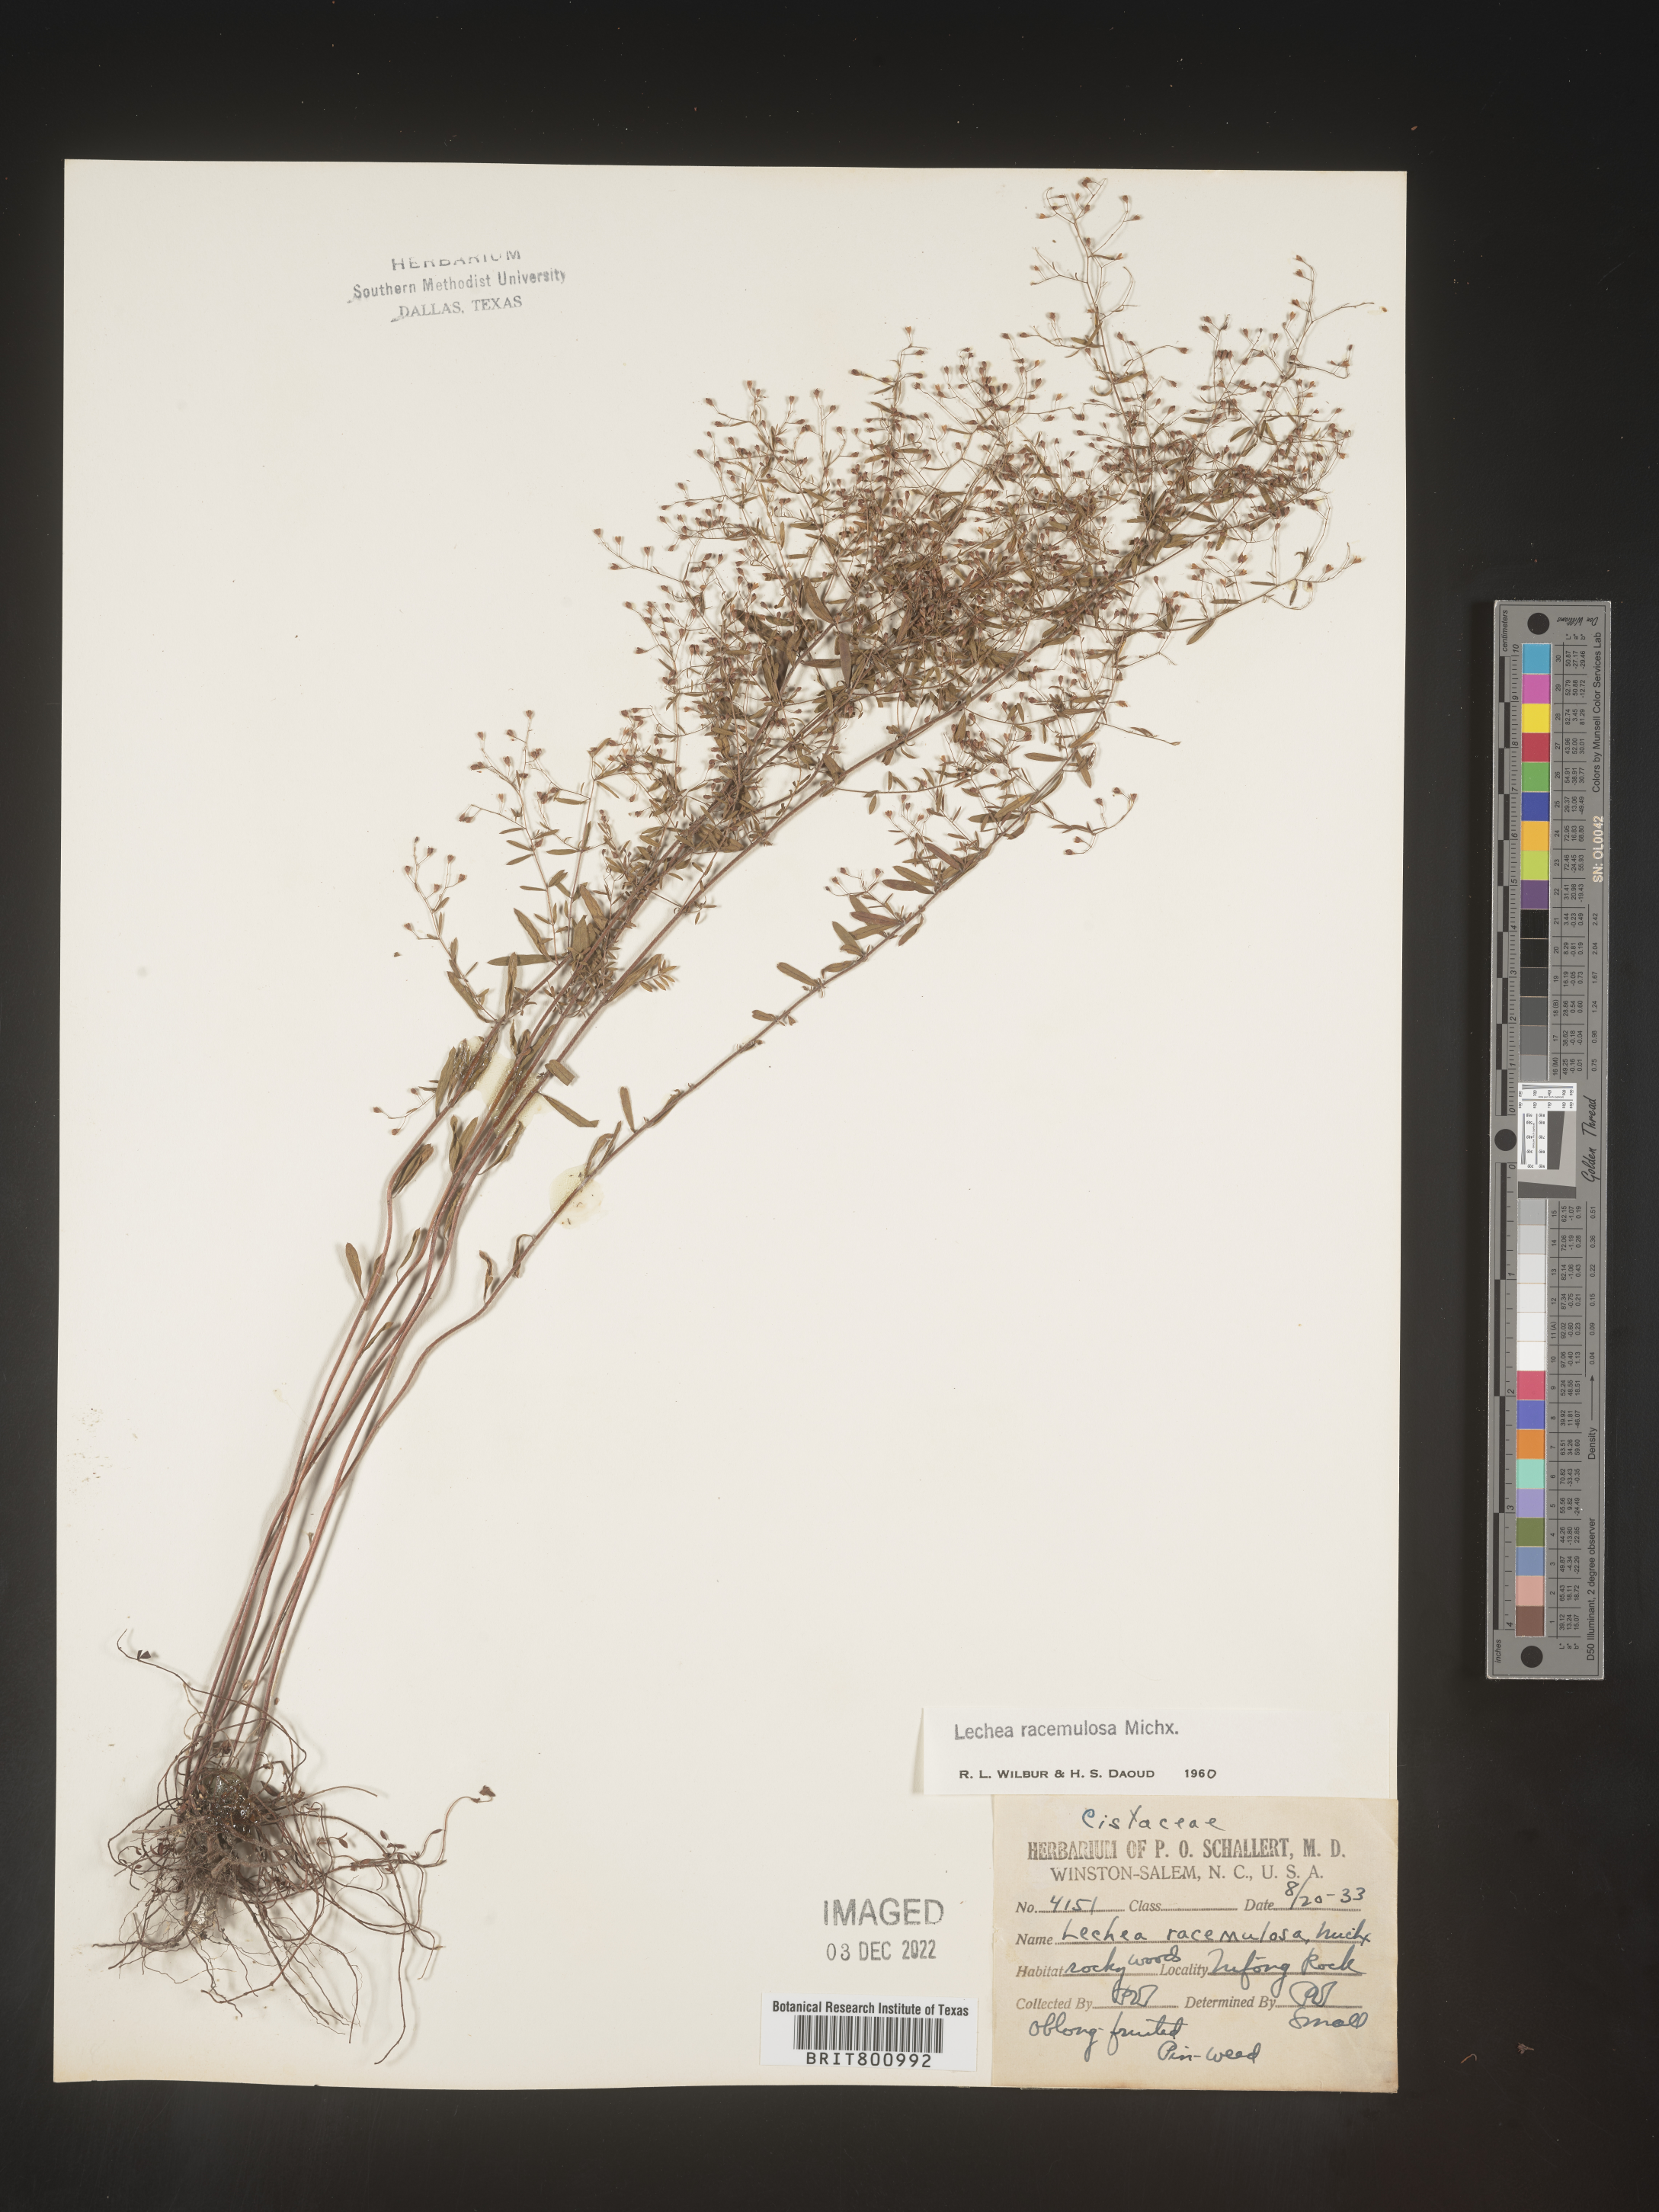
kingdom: Plantae
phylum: Tracheophyta
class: Magnoliopsida
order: Malvales
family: Cistaceae
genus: Lechea
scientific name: Lechea racemulosa
